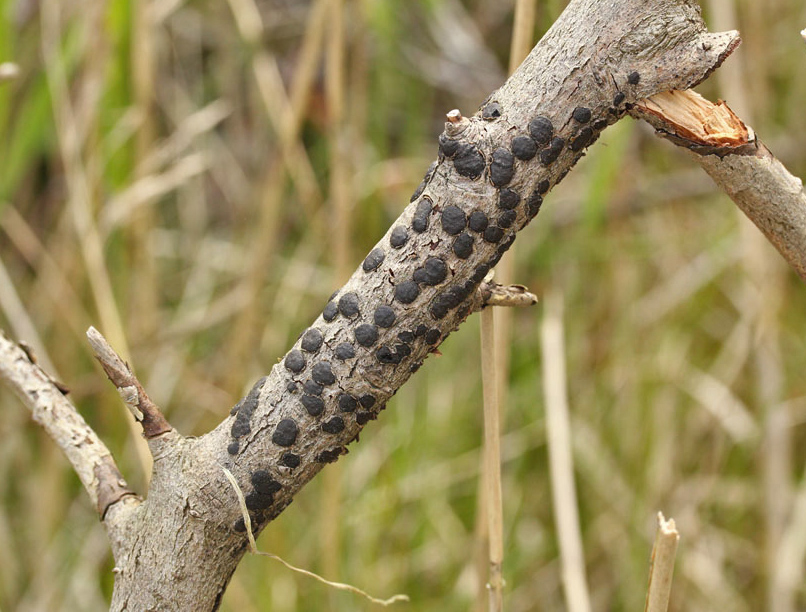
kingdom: Fungi
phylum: Ascomycota
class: Sordariomycetes
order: Xylariales
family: Diatrypaceae
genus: Diatrype
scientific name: Diatrype bullata
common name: pile-kulskorpe
